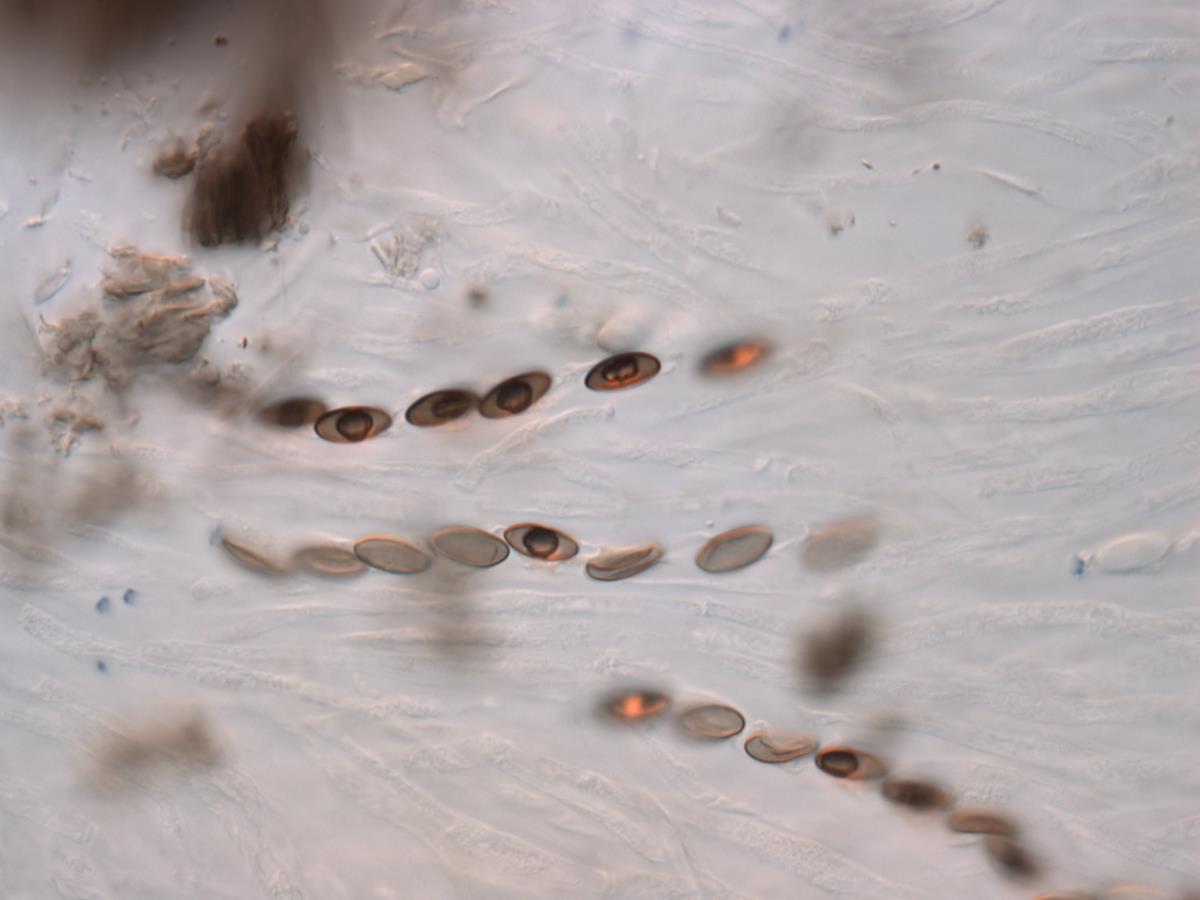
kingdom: Fungi
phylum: Ascomycota
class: Sordariomycetes
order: Xylariales
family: Xylariaceae
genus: Rosellinia
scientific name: Rosellinia
